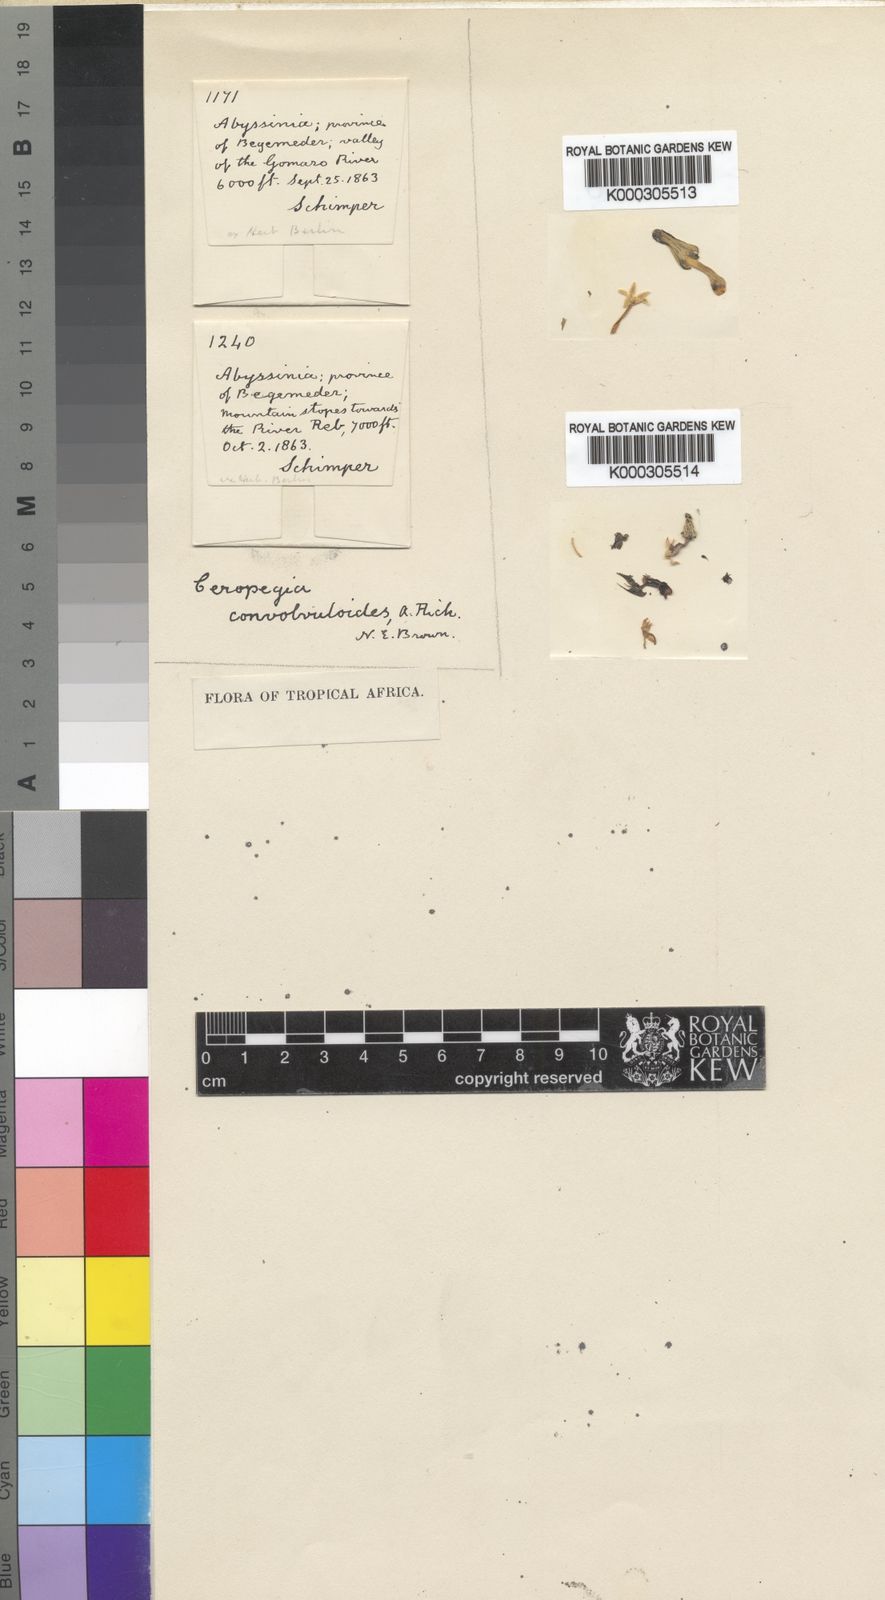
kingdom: Plantae
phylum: Tracheophyta
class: Magnoliopsida
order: Gentianales
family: Apocynaceae
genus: Ceropegia
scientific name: Ceropegia convolvuloides
